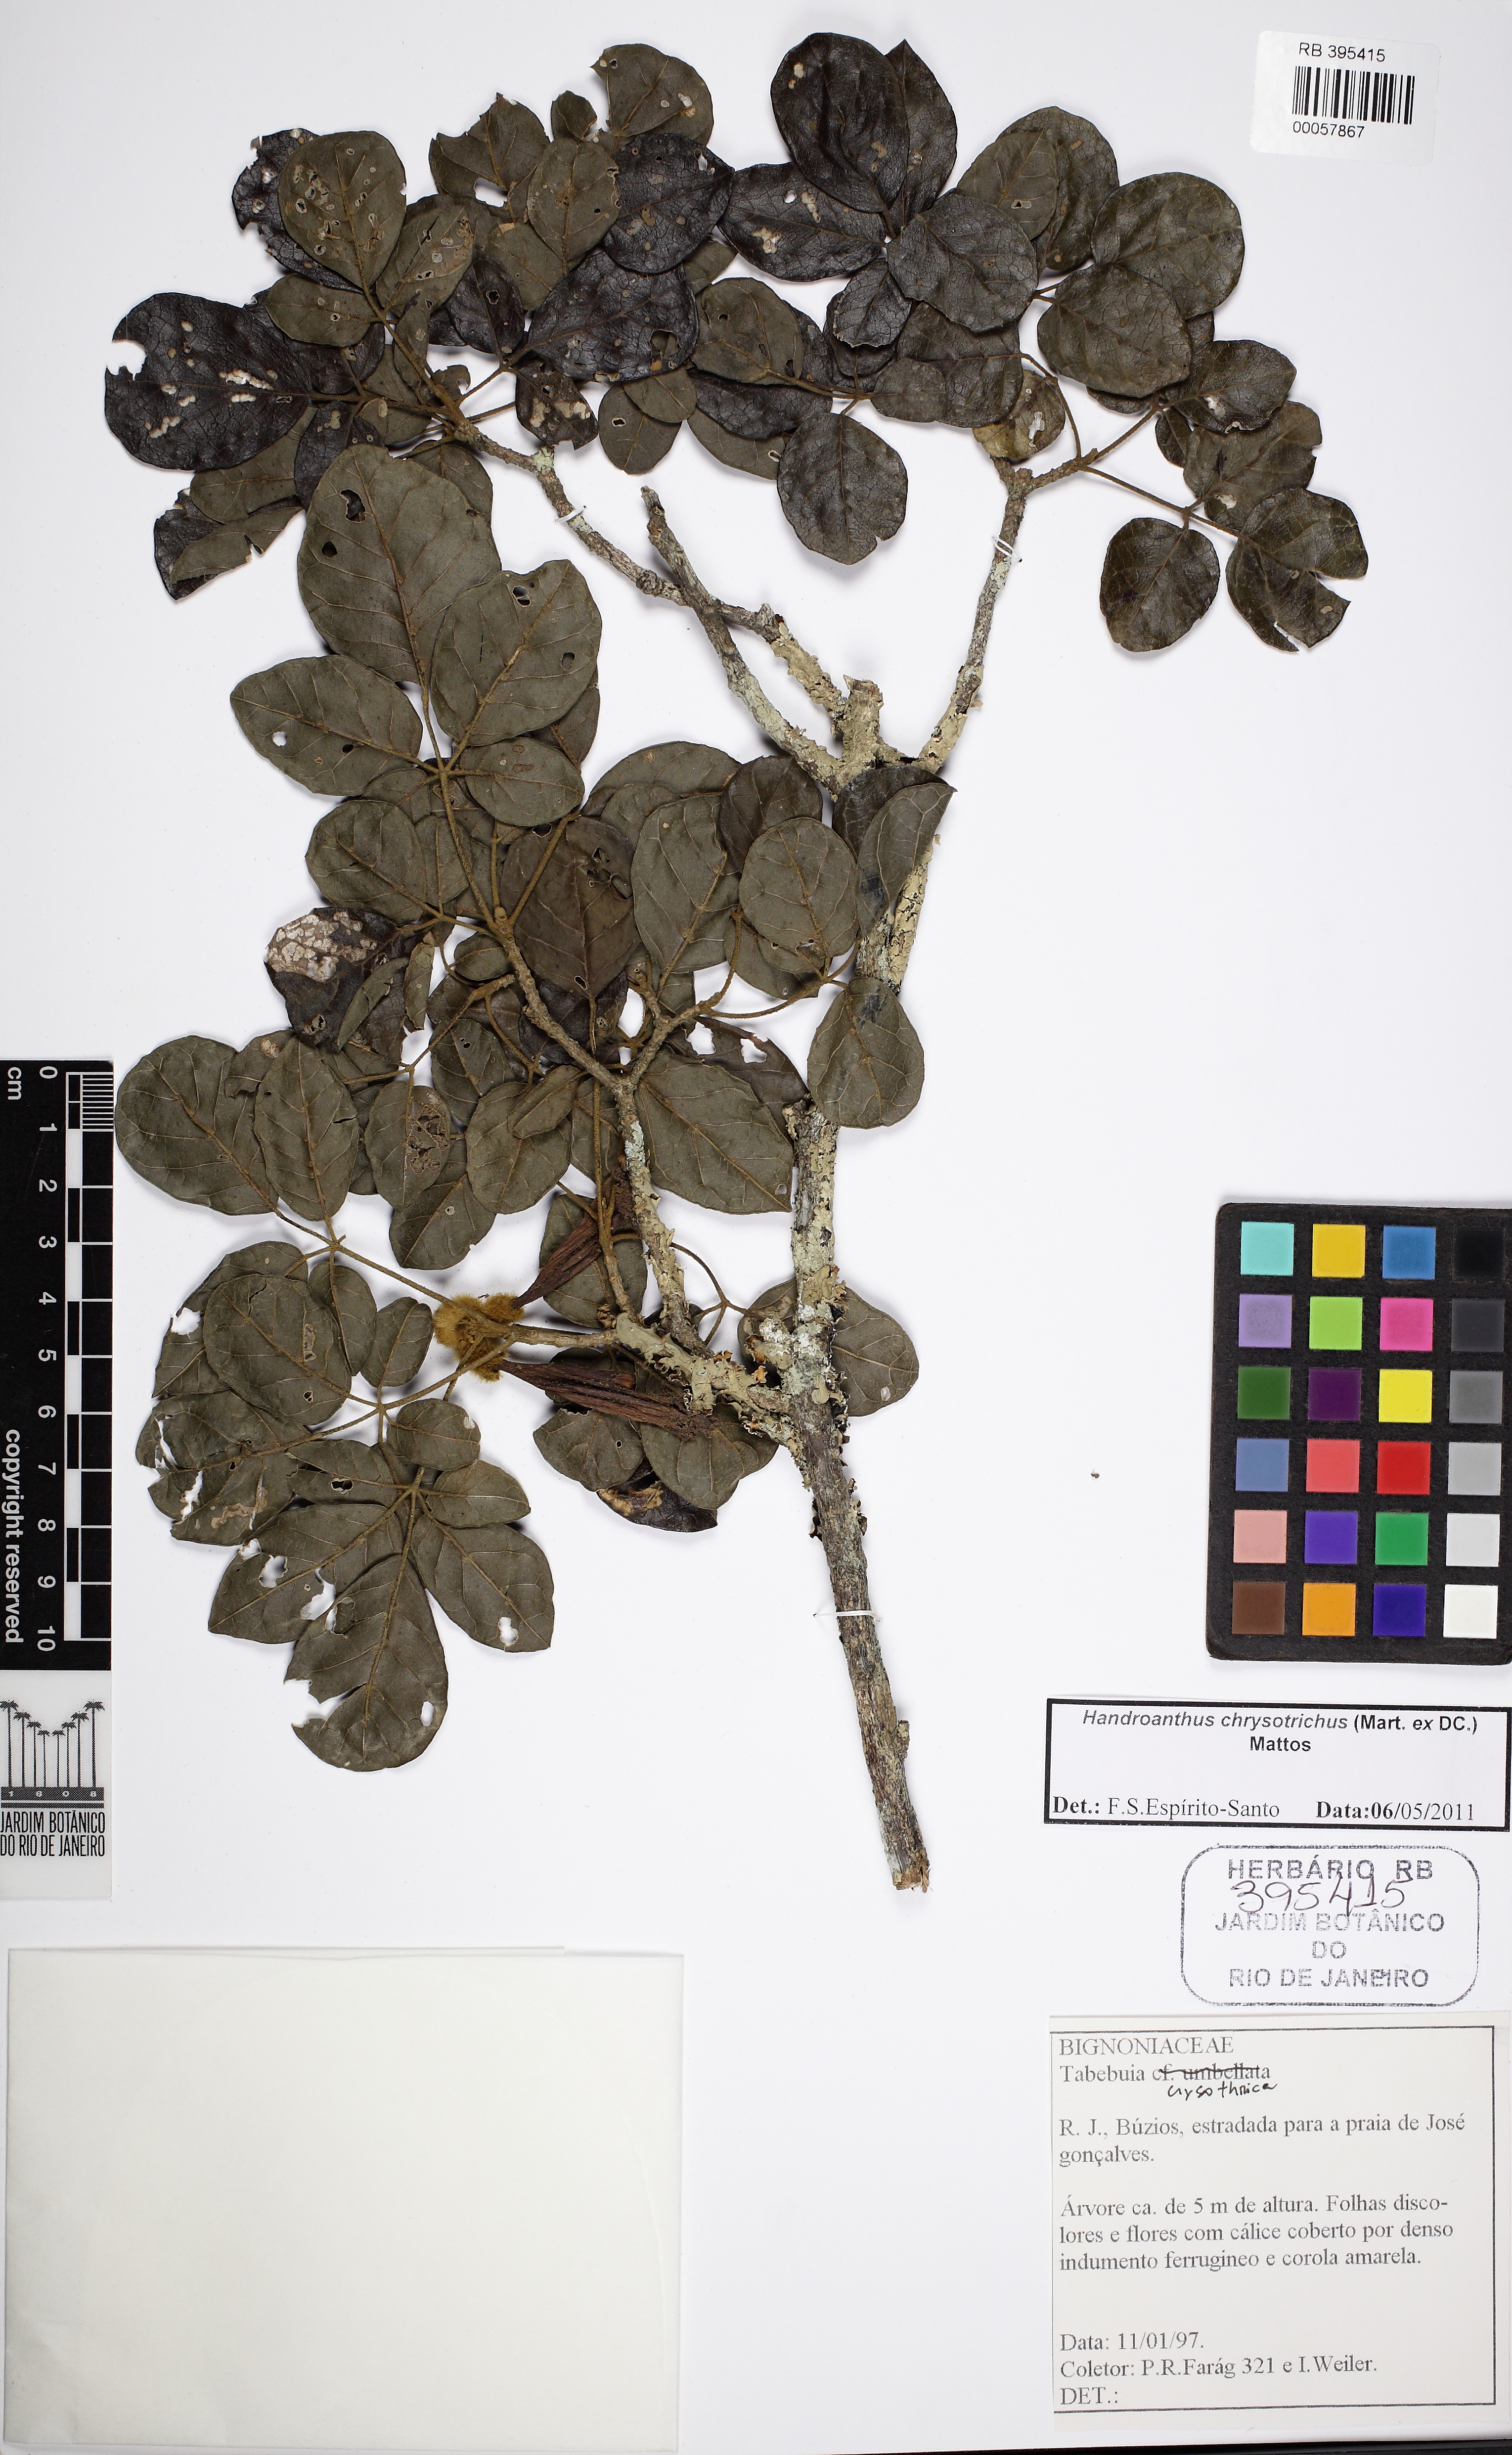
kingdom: Plantae
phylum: Tracheophyta
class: Magnoliopsida
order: Lamiales
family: Bignoniaceae
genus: Handroanthus
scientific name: Handroanthus chrysotrichus
